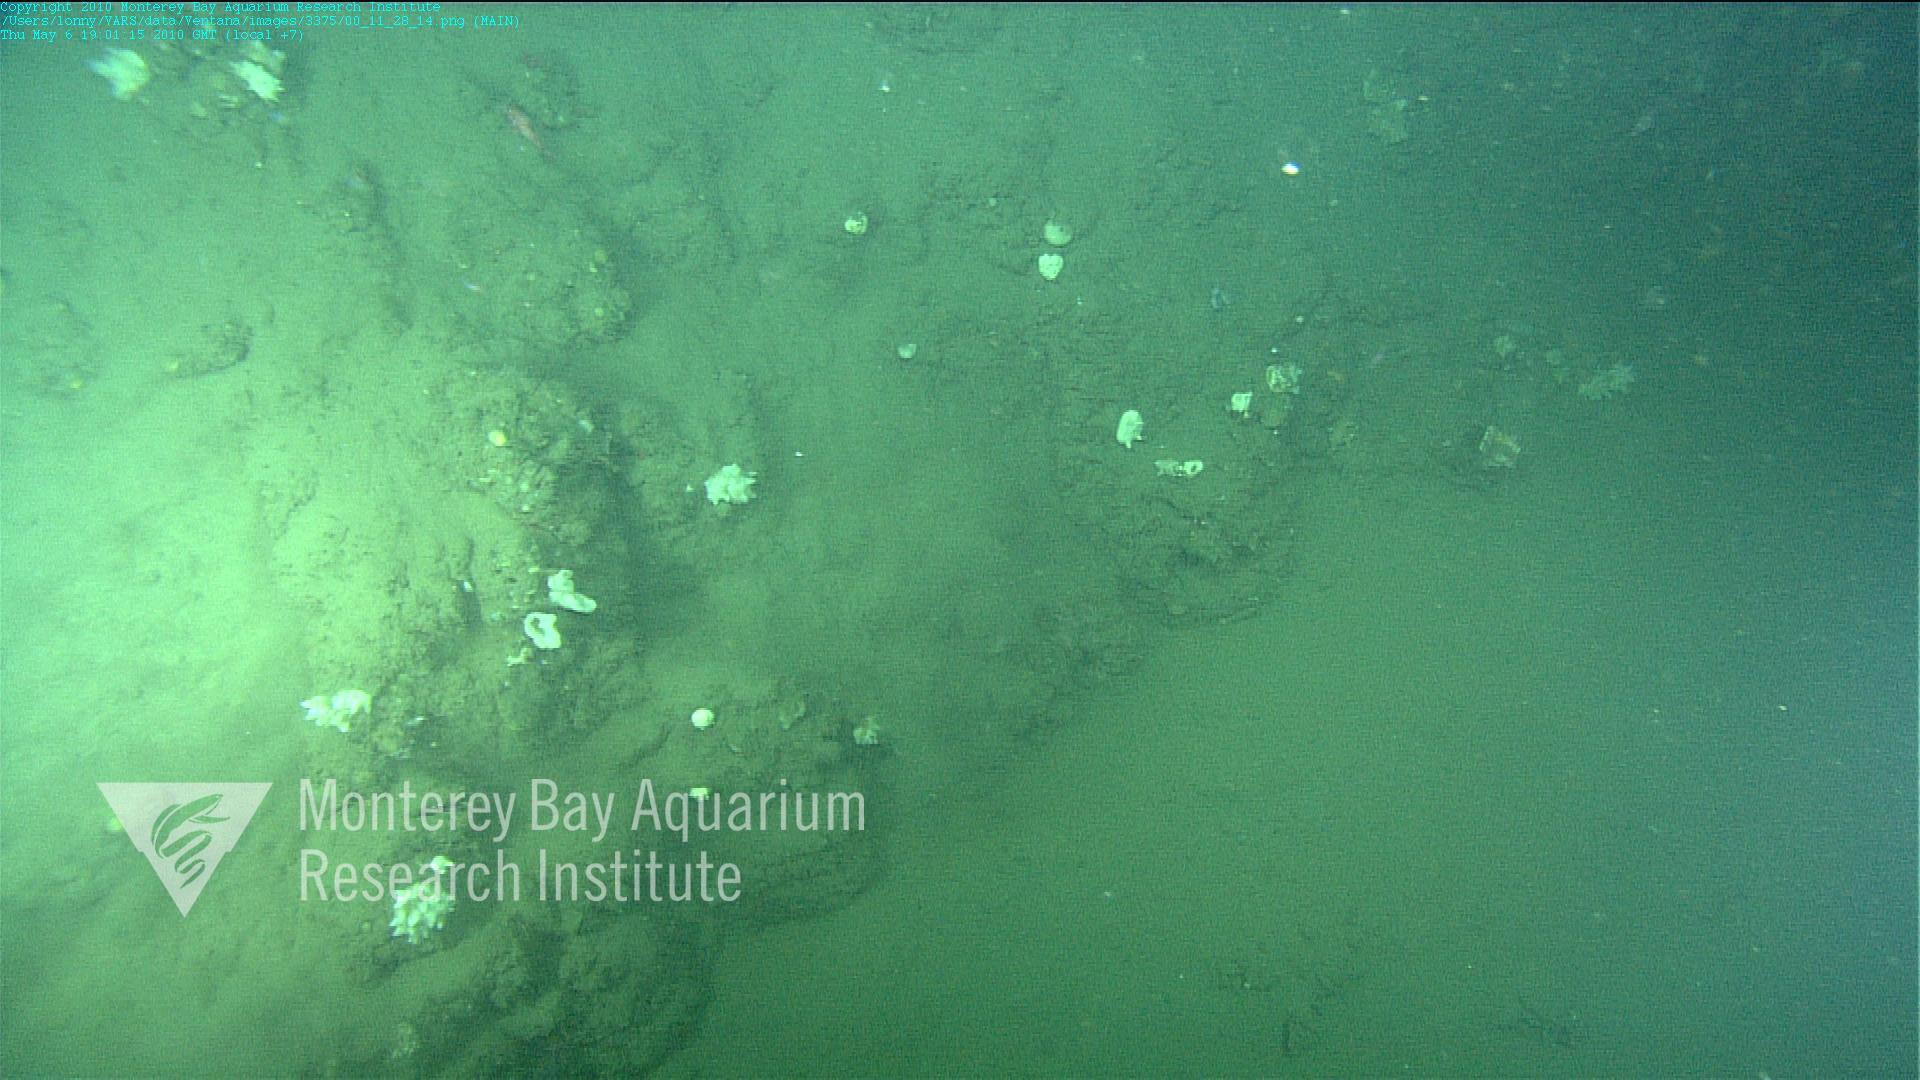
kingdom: Animalia
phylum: Porifera
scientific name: Porifera
